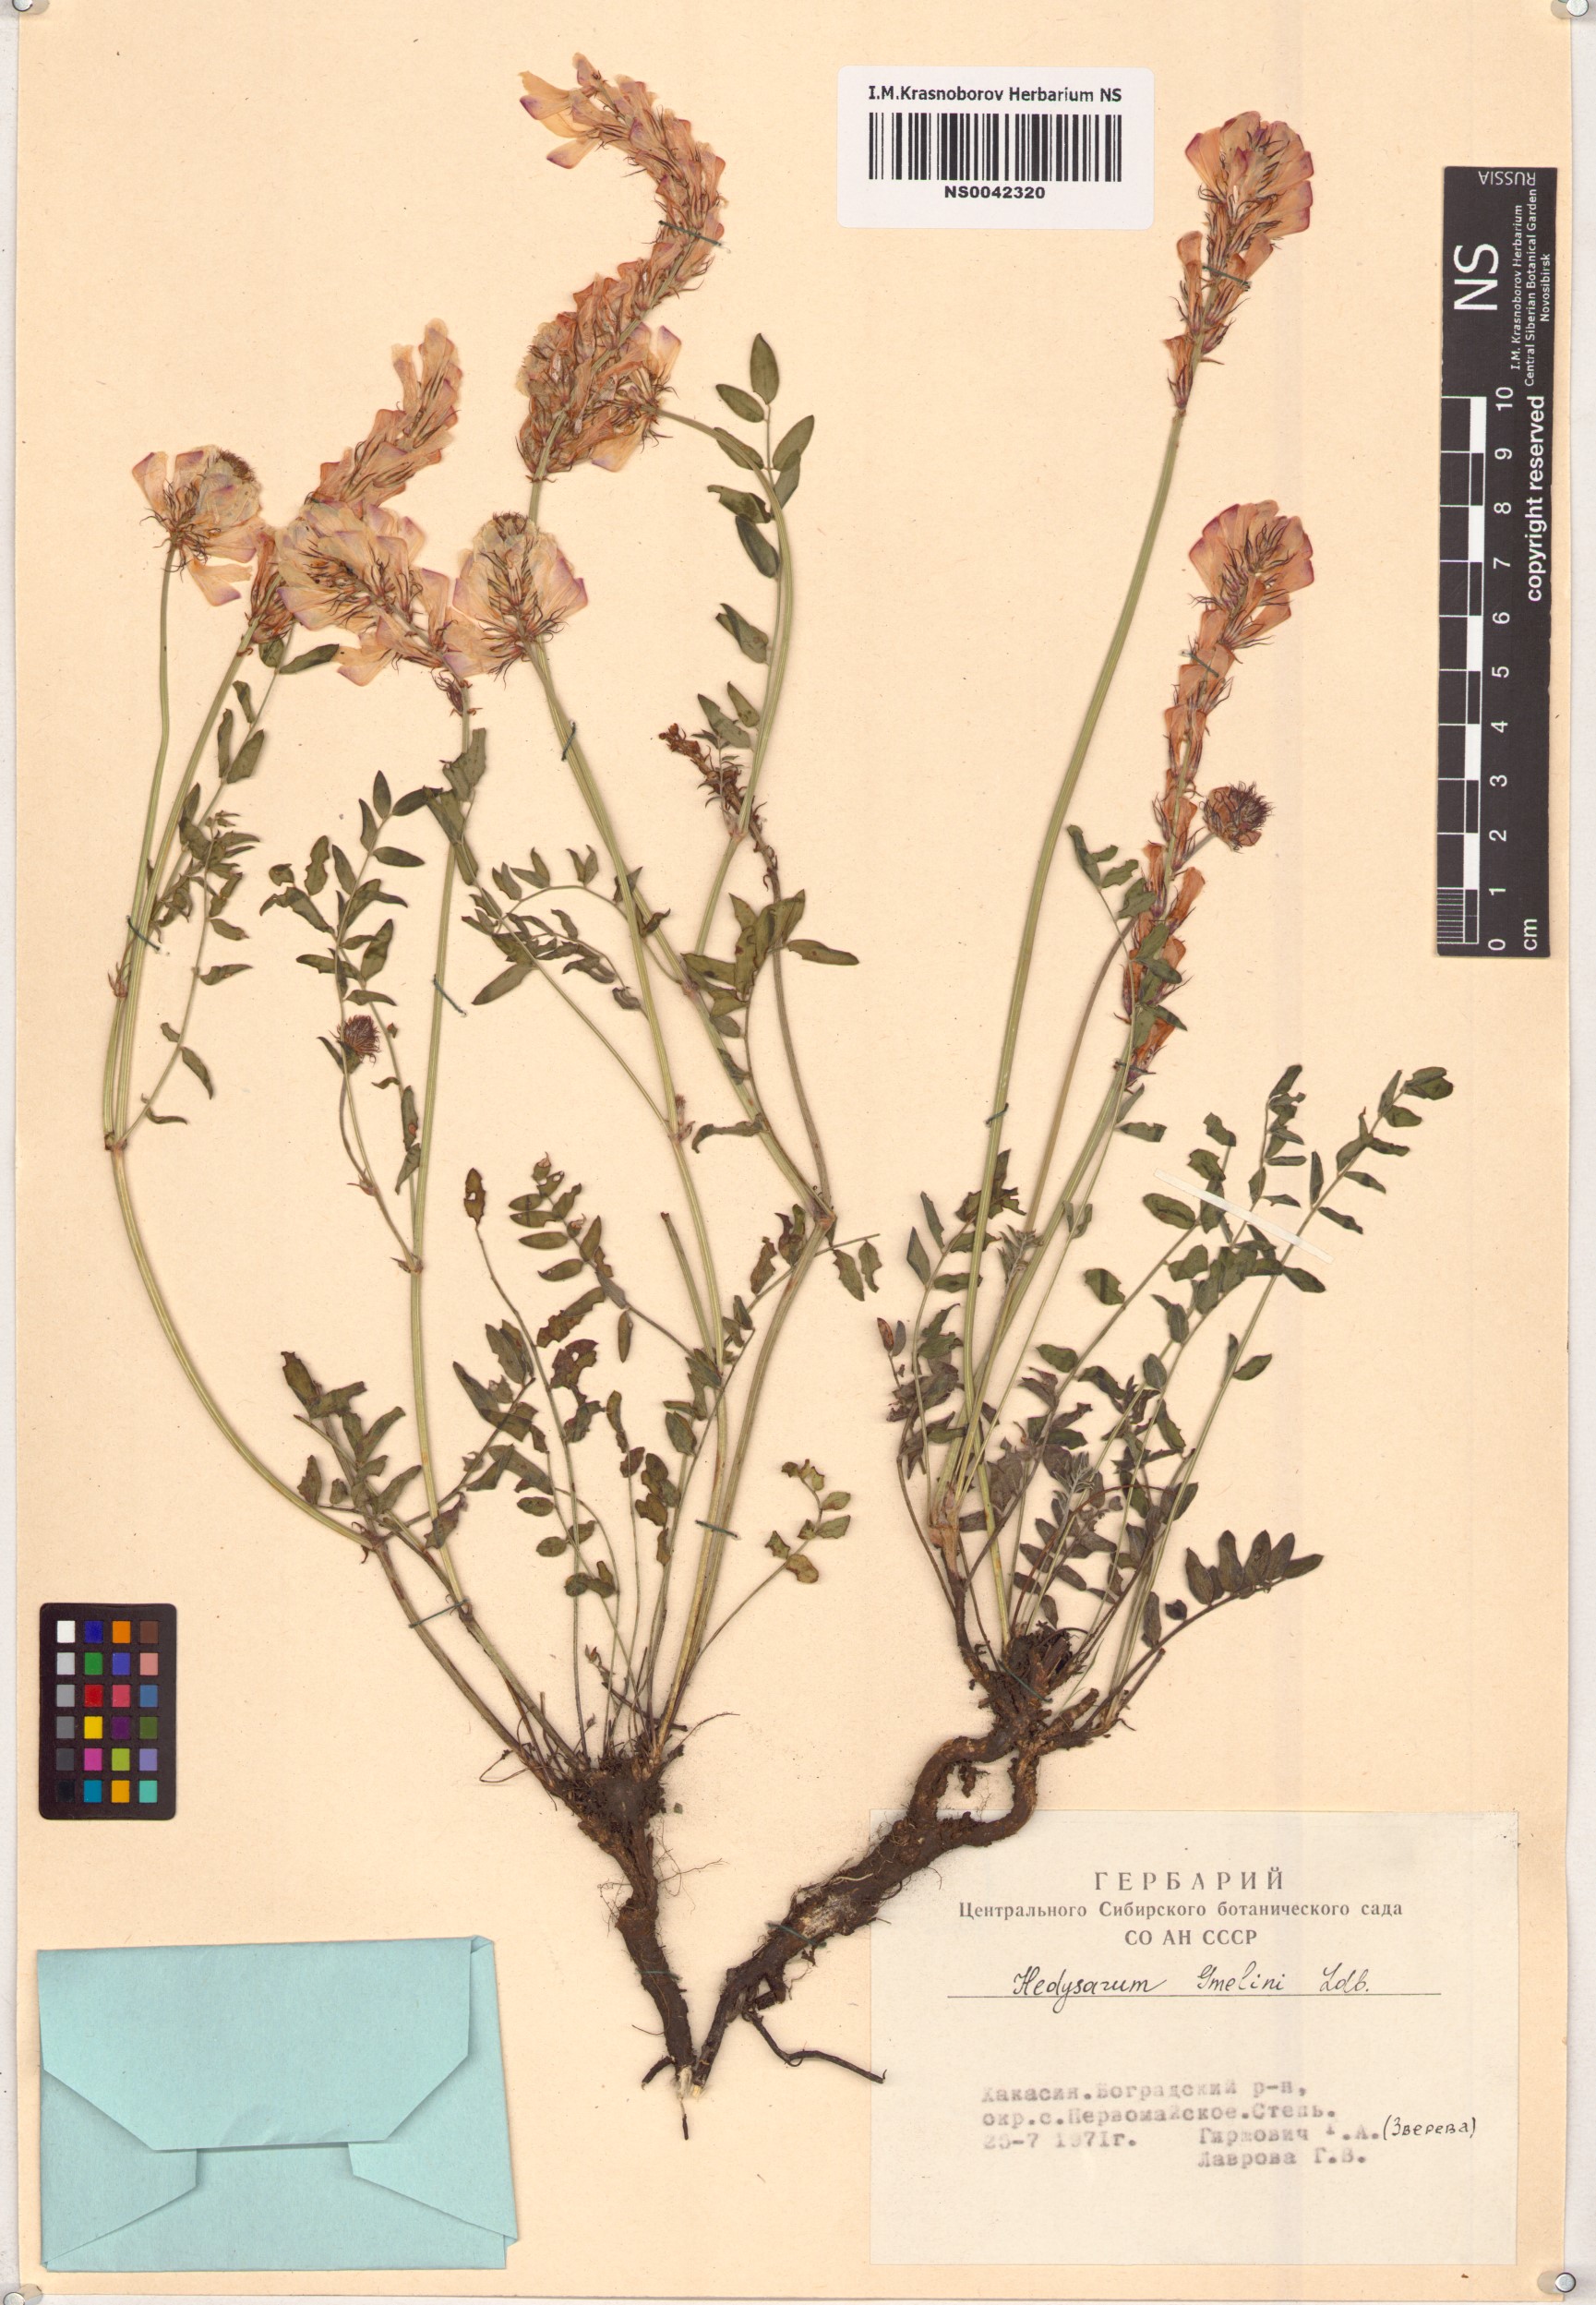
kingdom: Plantae
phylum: Tracheophyta
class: Magnoliopsida
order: Fabales
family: Fabaceae
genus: Hedysarum
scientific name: Hedysarum gmelinii
